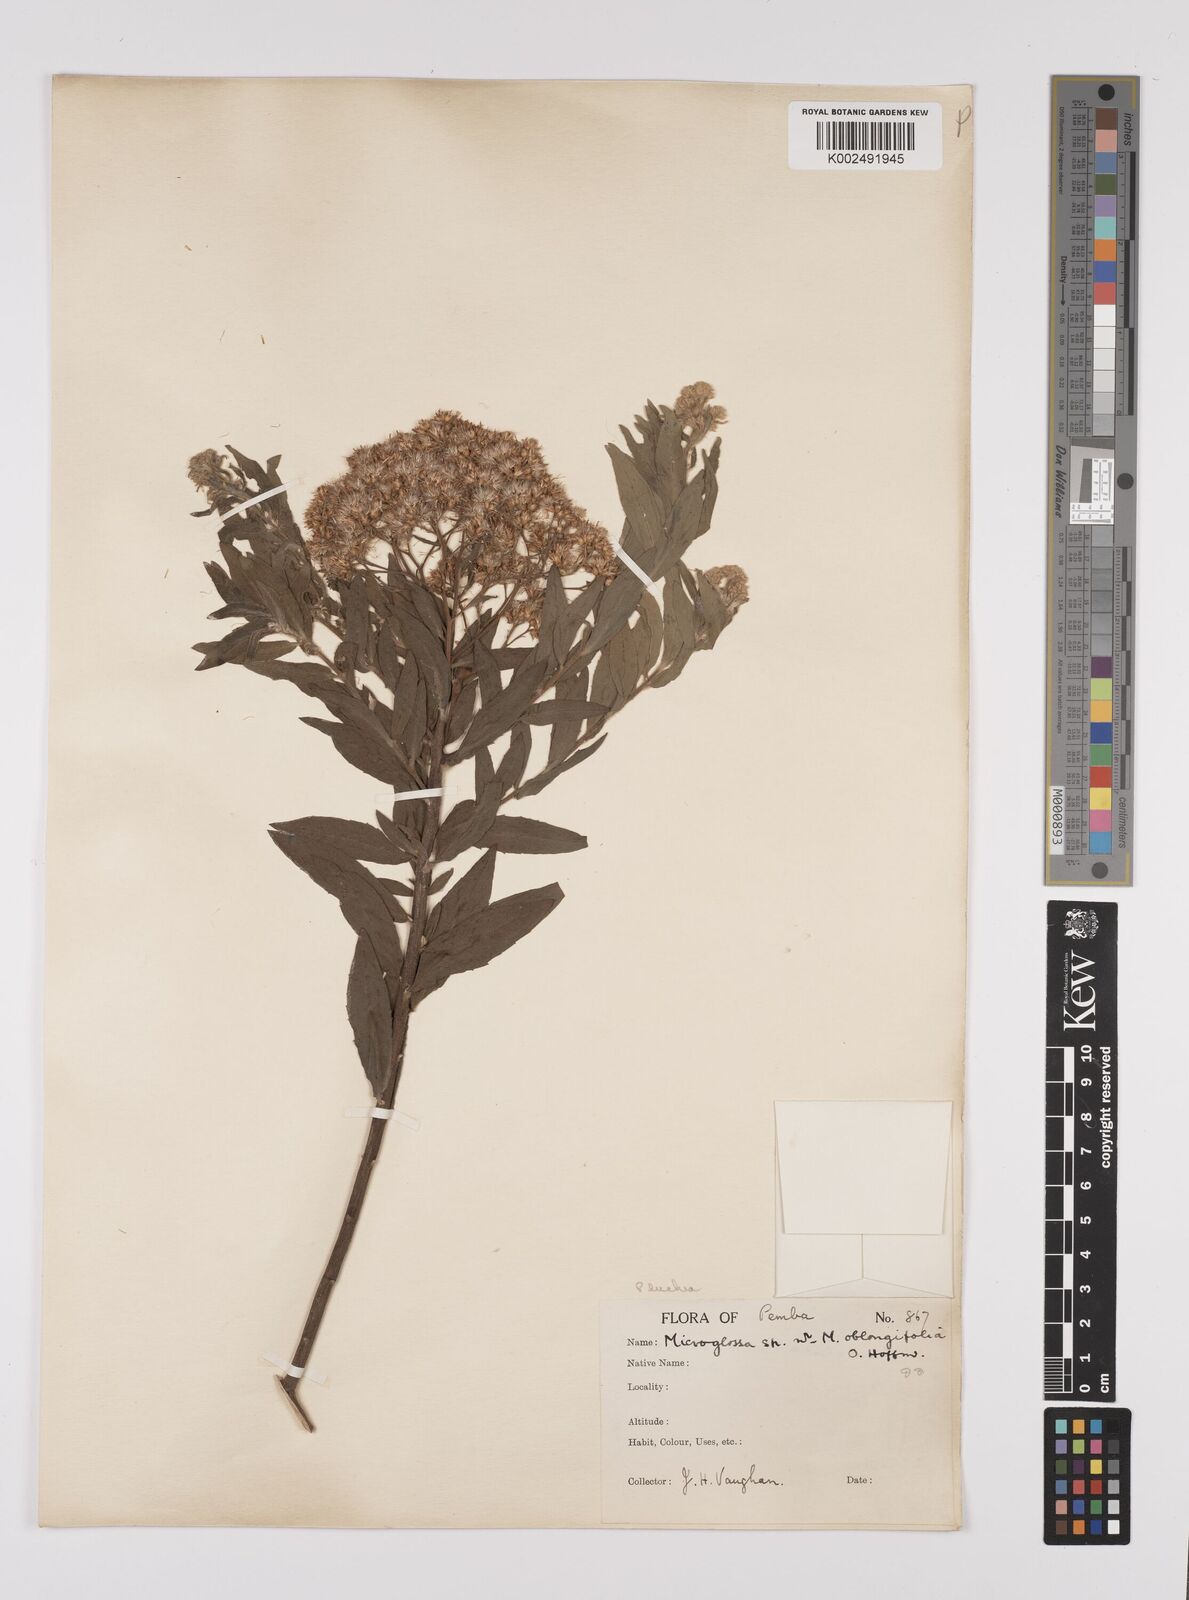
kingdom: Plantae
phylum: Tracheophyta
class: Magnoliopsida
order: Asterales
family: Asteraceae
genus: Pluchea
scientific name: Pluchea dioscoridis
